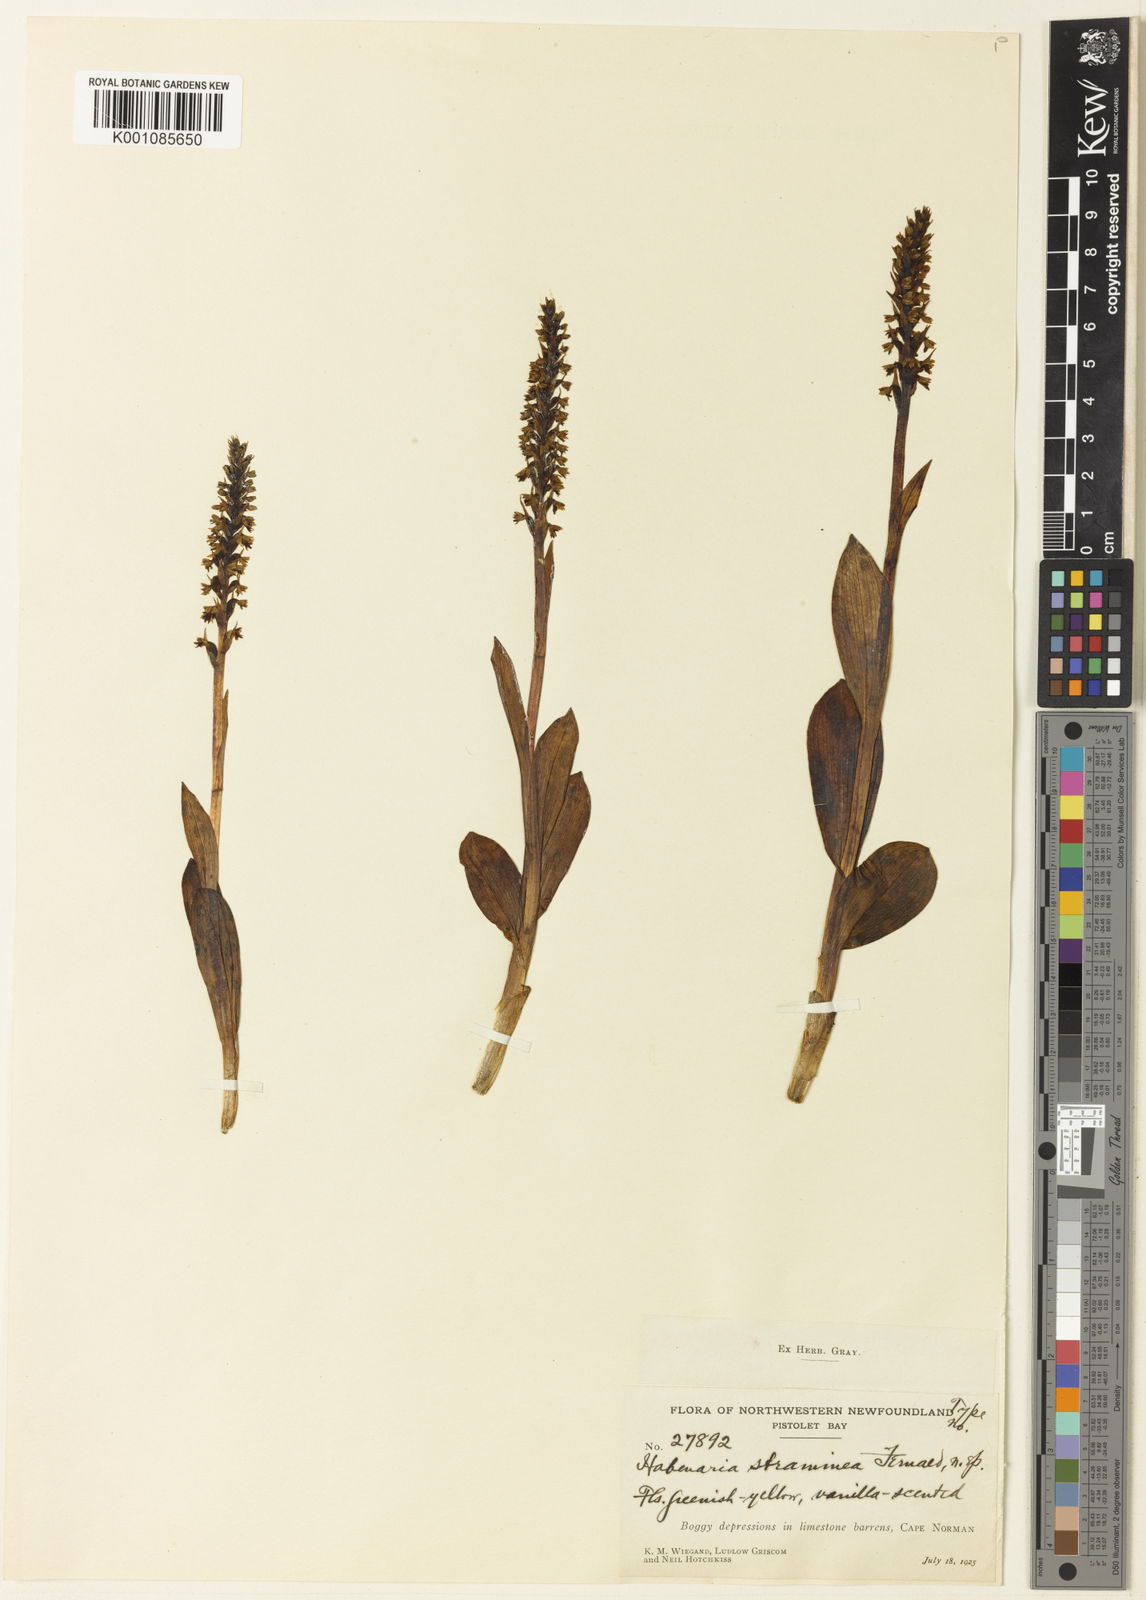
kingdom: Plantae
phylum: Tracheophyta
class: Liliopsida
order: Asparagales
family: Orchidaceae
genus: Pseudorchis
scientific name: Pseudorchis
